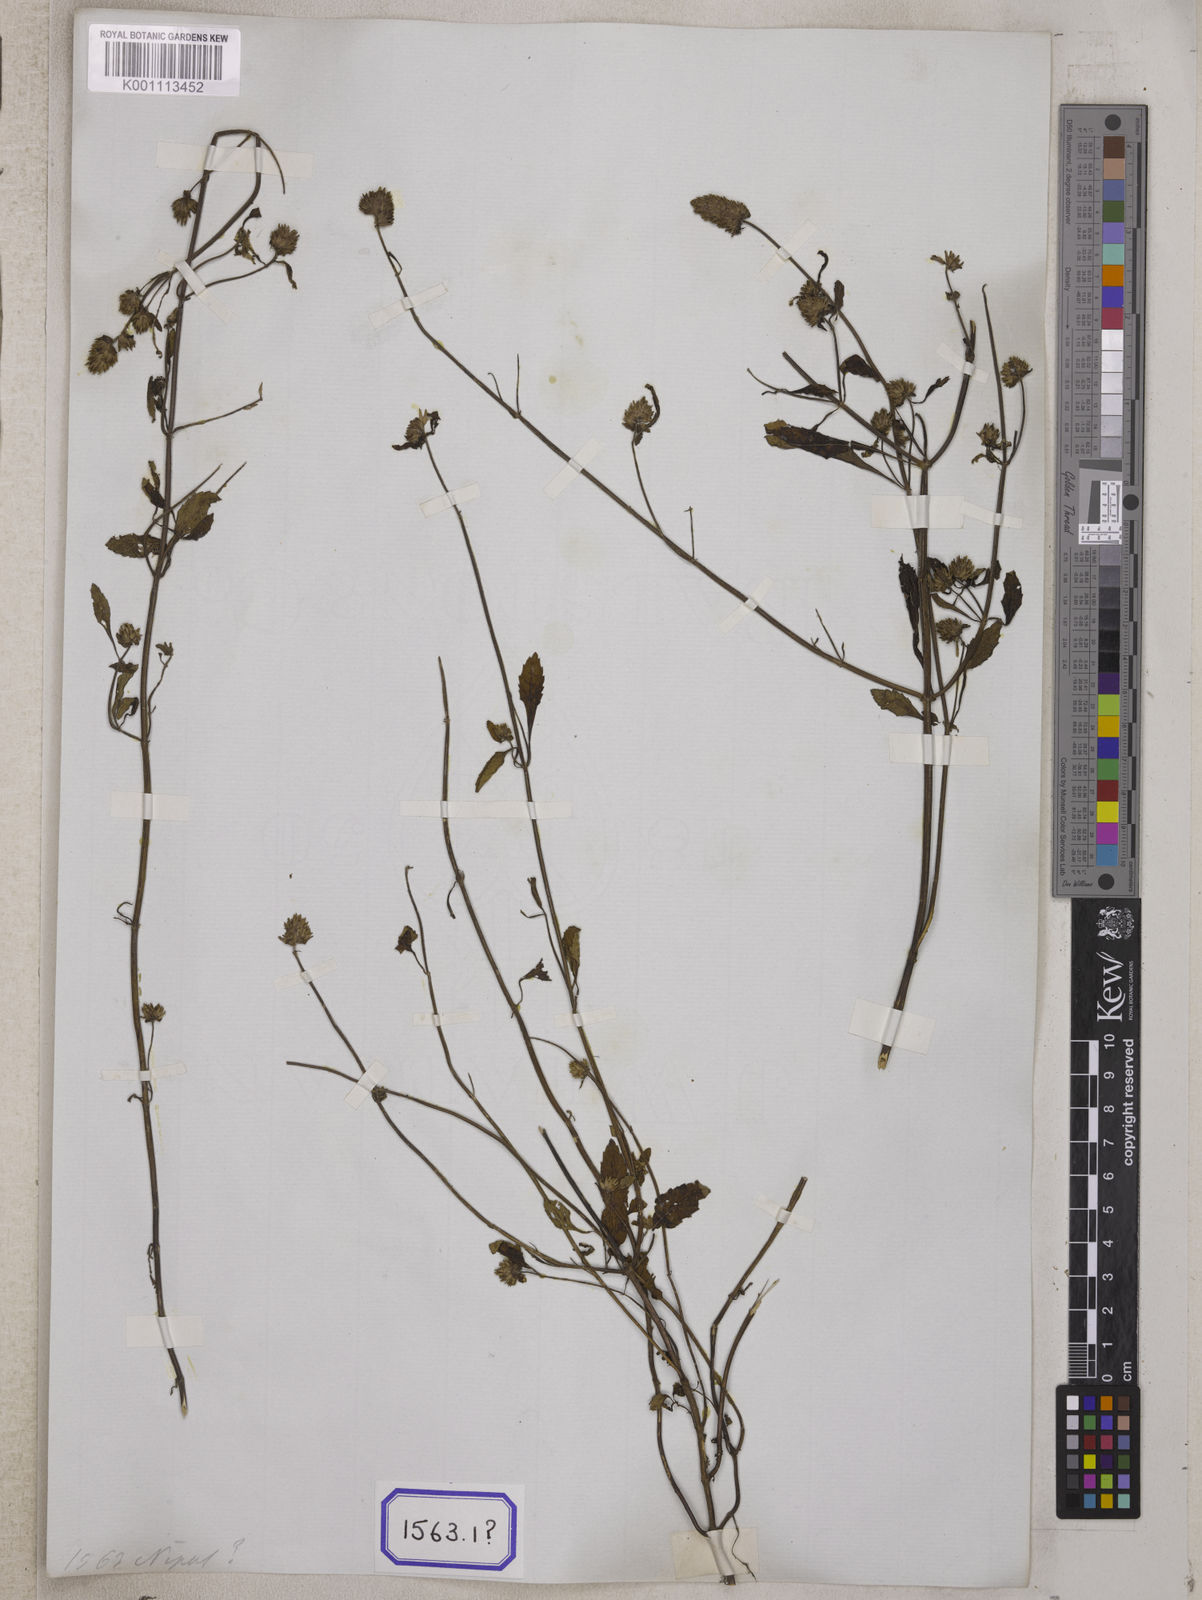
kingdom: Plantae
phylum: Tracheophyta
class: Magnoliopsida
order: Lamiales
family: Lamiaceae
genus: Platostoma
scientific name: Platostoma hispidum
